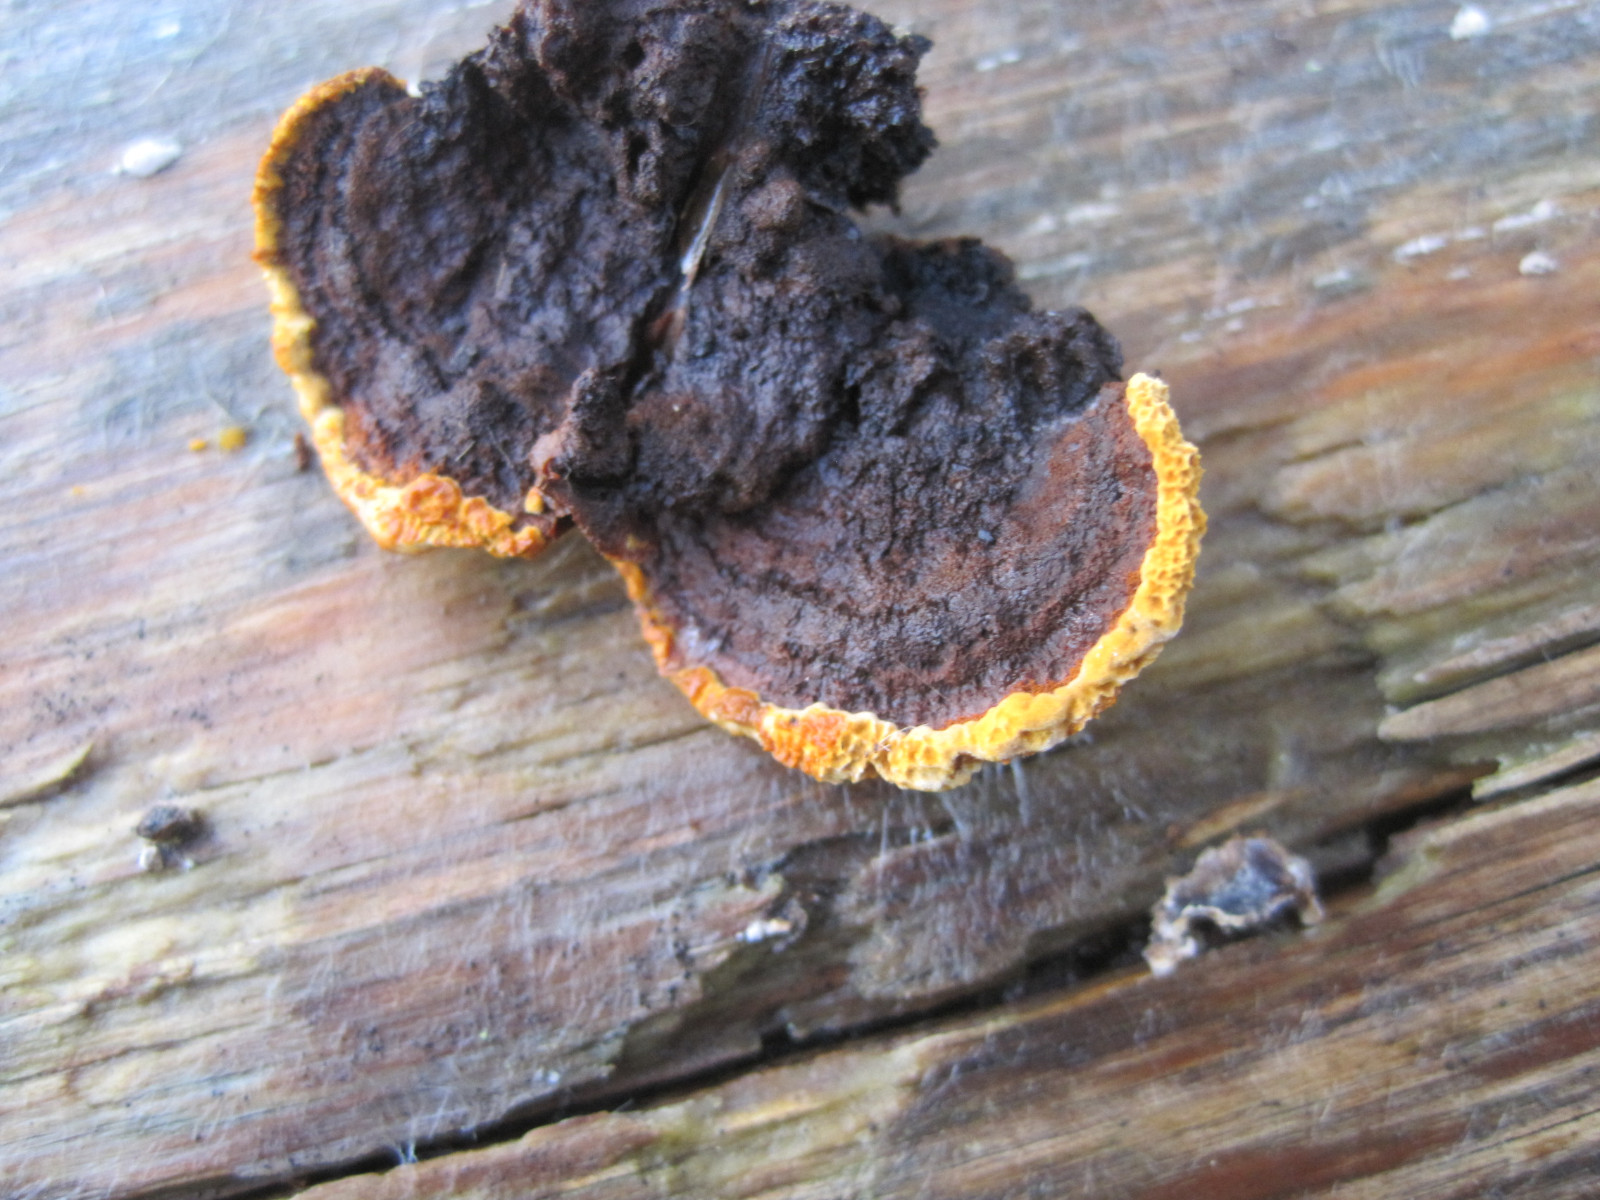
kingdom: Fungi
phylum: Basidiomycota
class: Agaricomycetes
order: Gloeophyllales
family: Gloeophyllaceae
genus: Gloeophyllum
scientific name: Gloeophyllum sepiarium
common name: fyrre-korkhat
